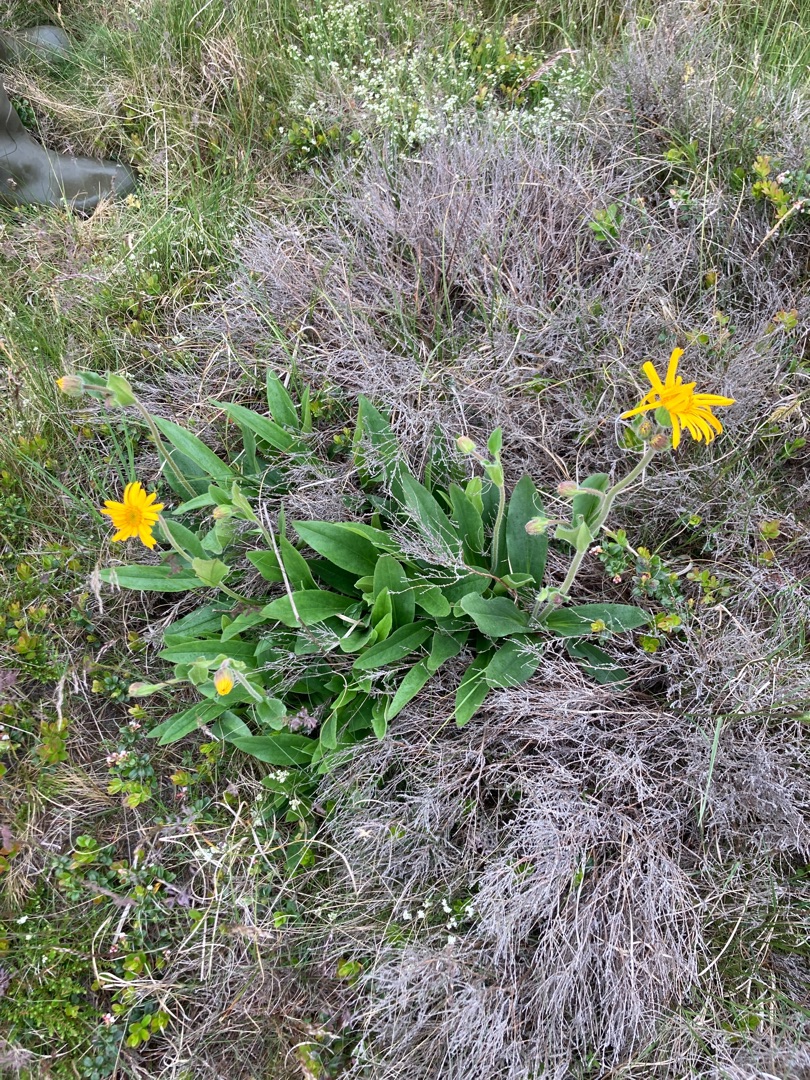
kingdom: Plantae
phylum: Tracheophyta
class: Magnoliopsida
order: Asterales
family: Asteraceae
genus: Arnica
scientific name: Arnica montana
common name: Guldblomme
